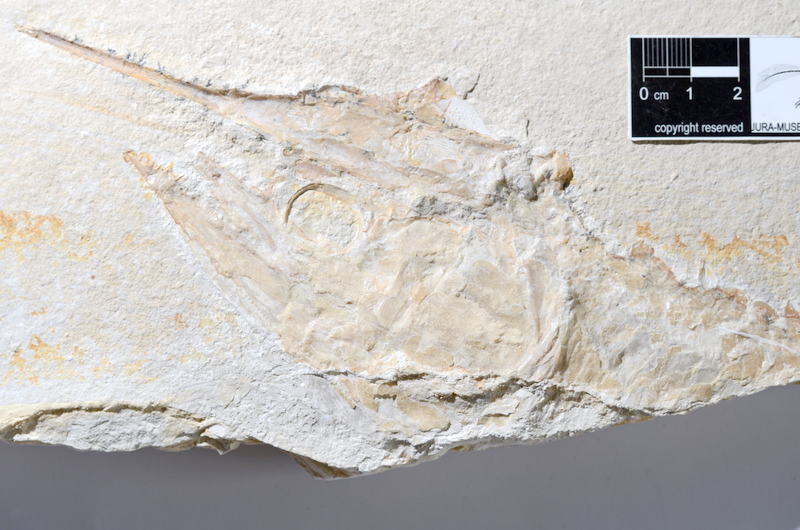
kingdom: Animalia
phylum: Chordata
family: Aspidorhynchidae
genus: Aspidorhynchus
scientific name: Aspidorhynchus acutirostris
